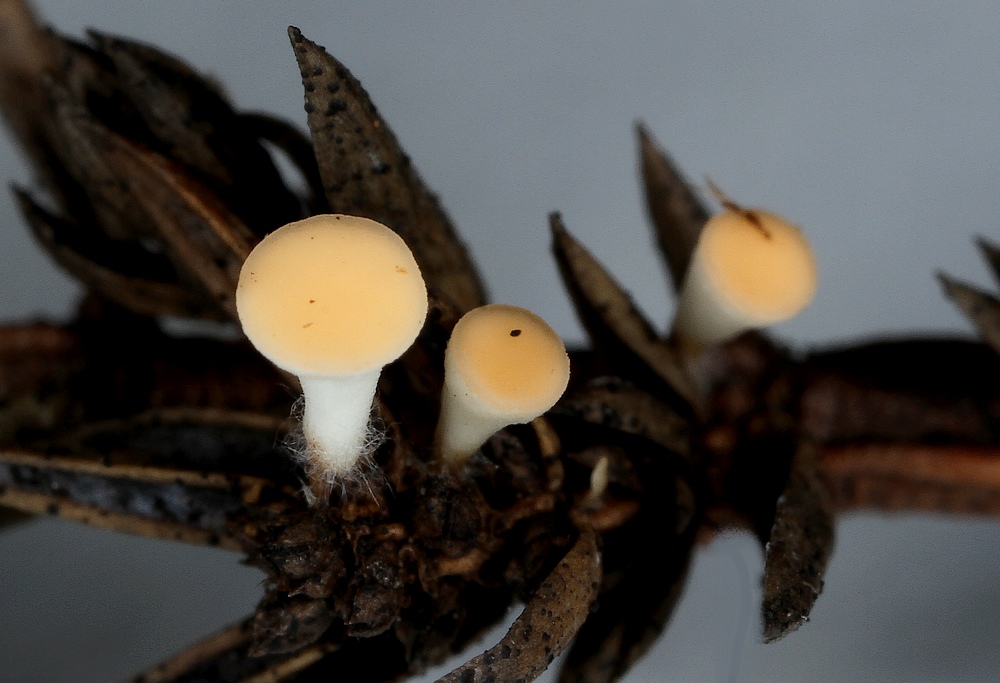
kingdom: Fungi
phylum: Ascomycota
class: Pezizomycetes
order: Pezizales
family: Sarcoscyphaceae
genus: Pithya
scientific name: Pithya cupressina
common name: lille dukatbæger
